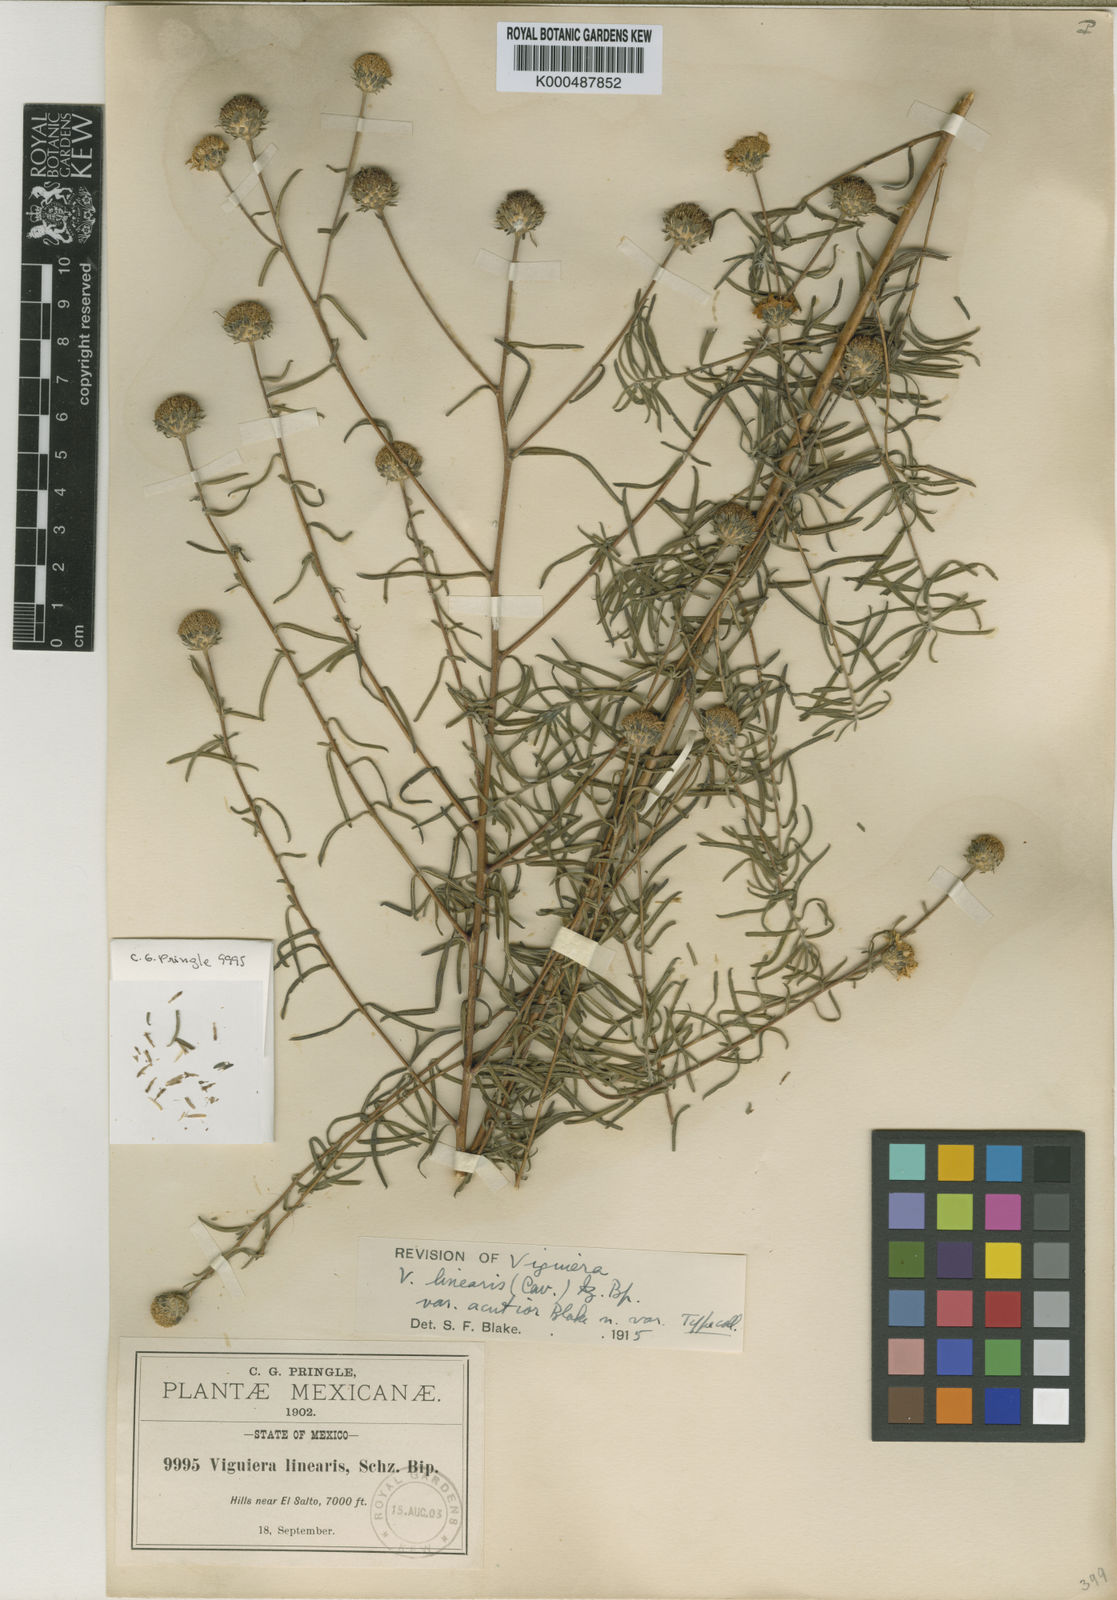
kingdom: Plantae
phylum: Tracheophyta
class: Magnoliopsida
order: Asterales
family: Asteraceae
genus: Aldama
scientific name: Aldama linearis
